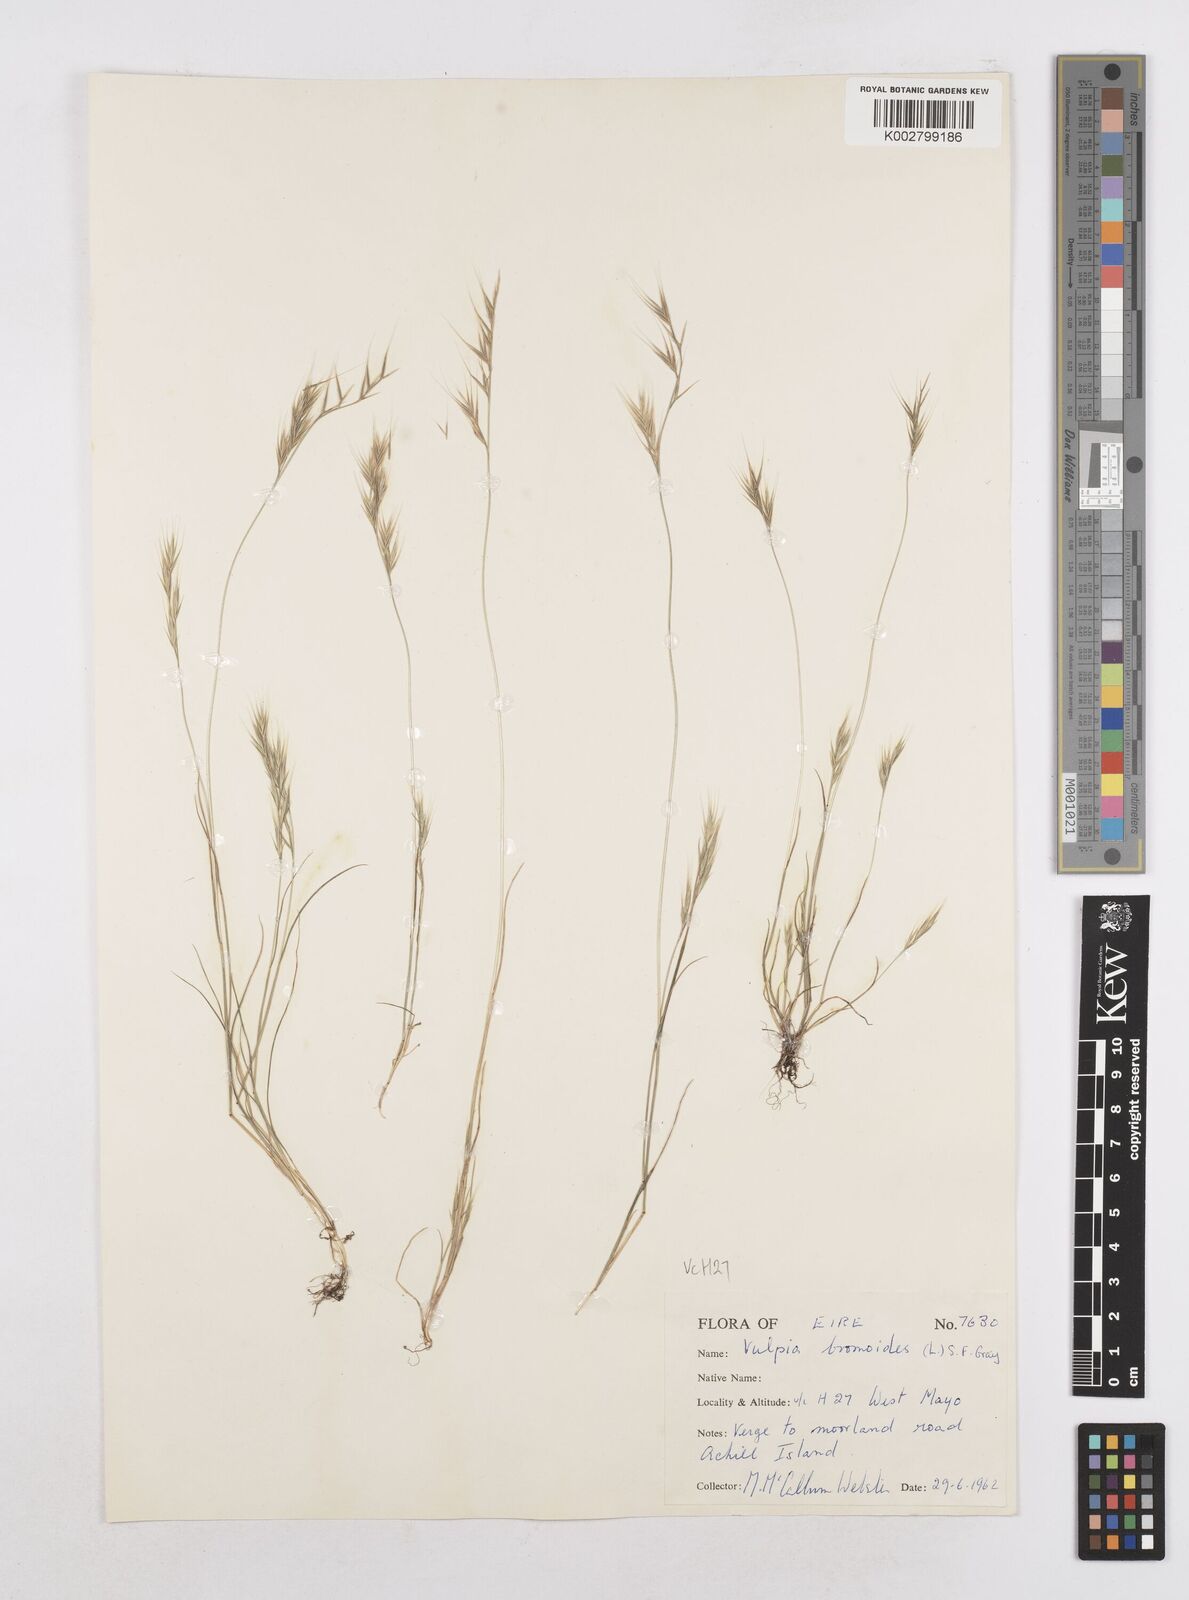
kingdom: Plantae
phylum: Tracheophyta
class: Liliopsida
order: Poales
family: Poaceae
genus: Festuca
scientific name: Festuca bromoides
